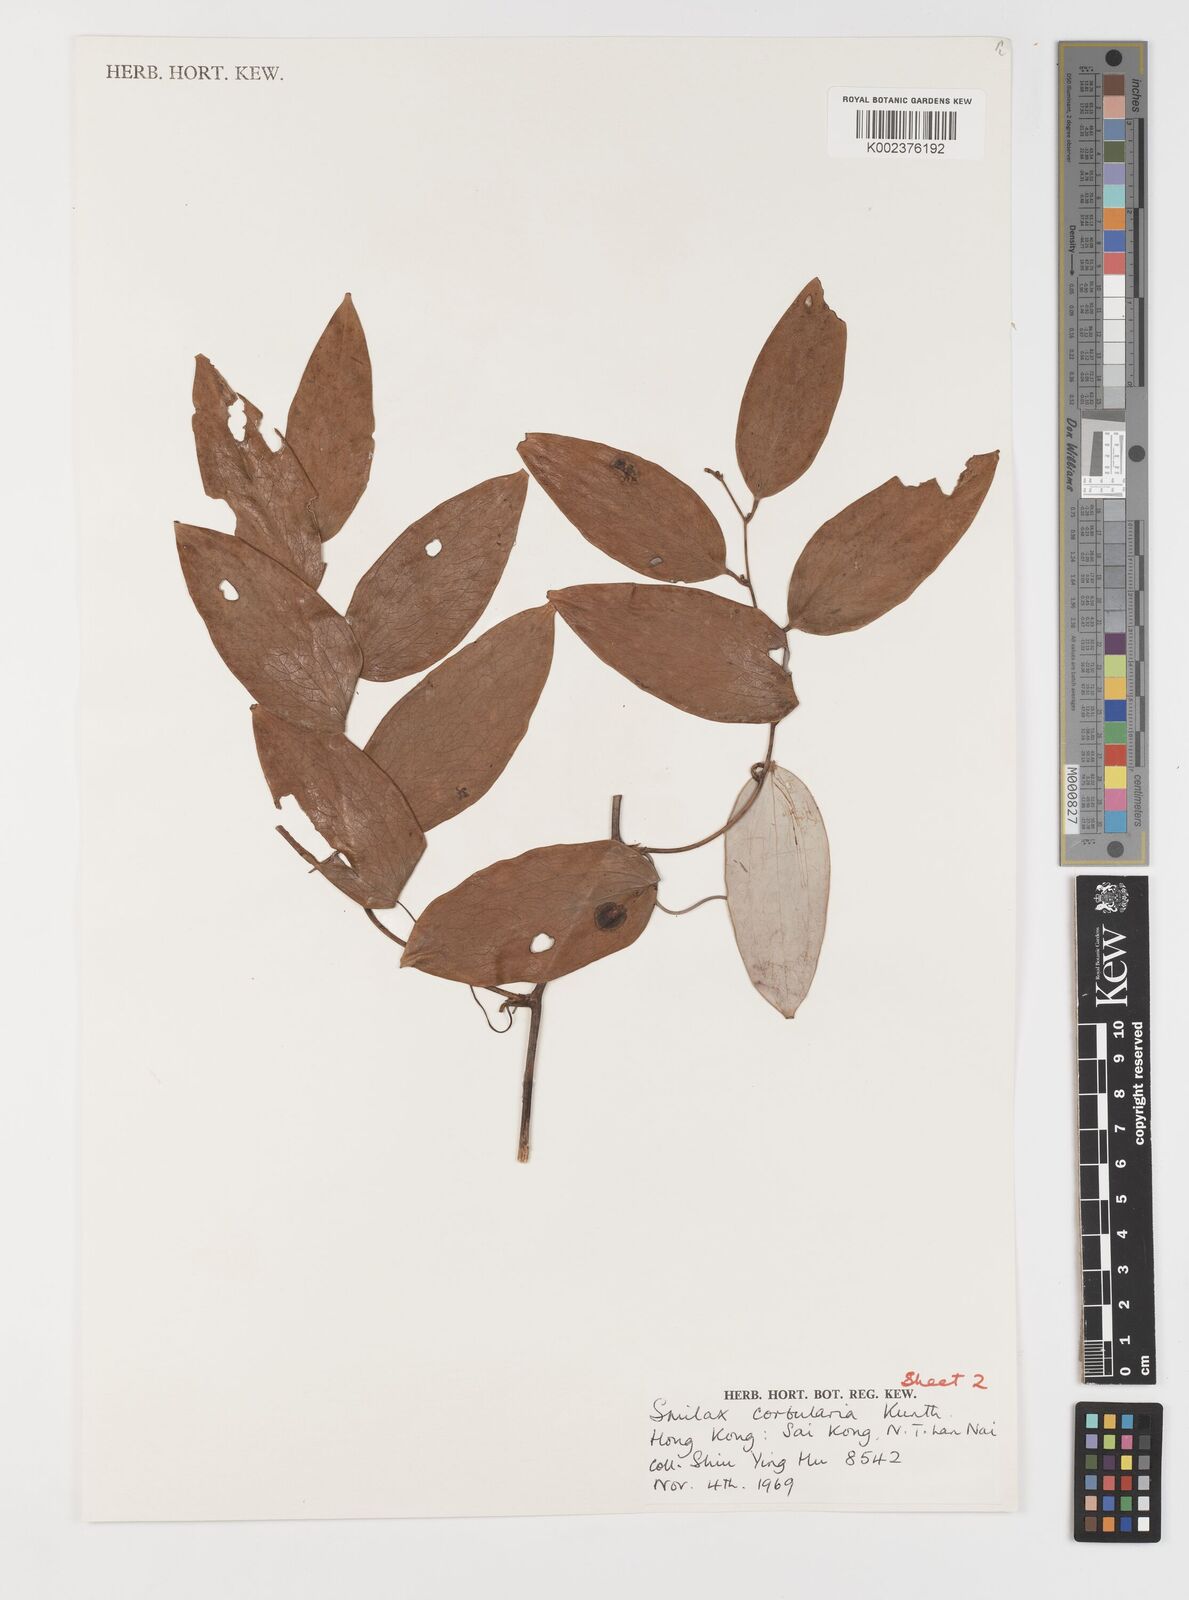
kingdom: Plantae
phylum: Tracheophyta
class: Liliopsida
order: Liliales
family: Smilacaceae
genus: Smilax
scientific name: Smilax corbularia
